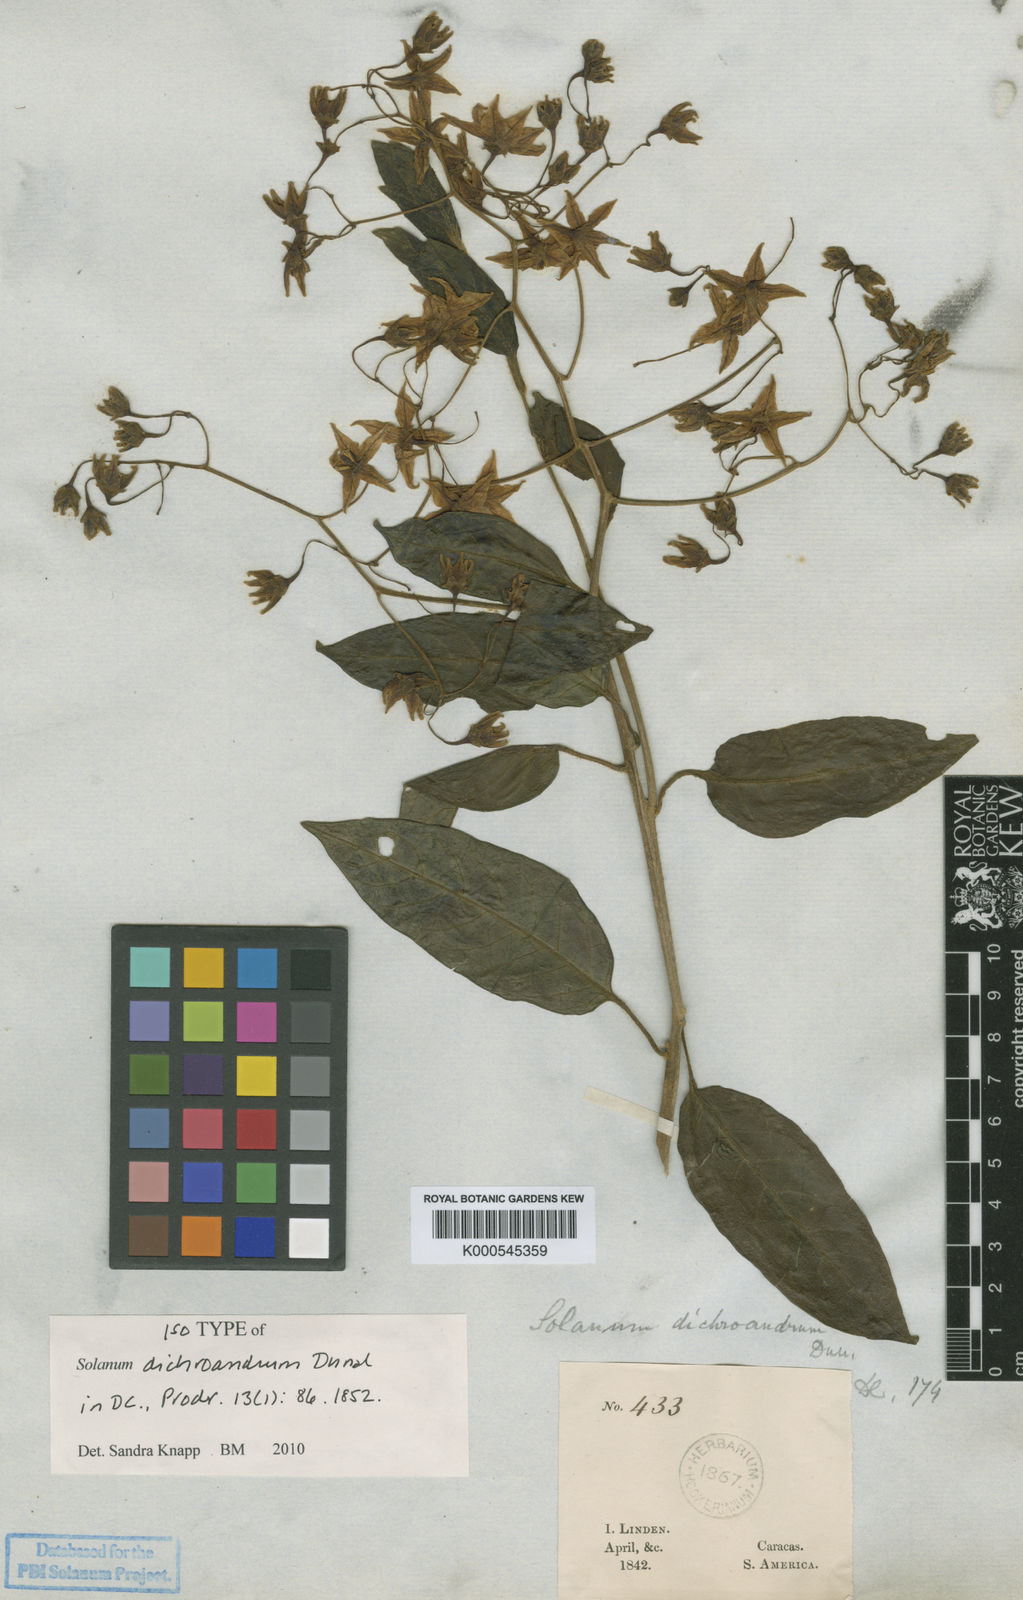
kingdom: Plantae
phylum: Tracheophyta
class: Magnoliopsida
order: Solanales
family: Solanaceae
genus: Solanum
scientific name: Solanum dichroandrum
